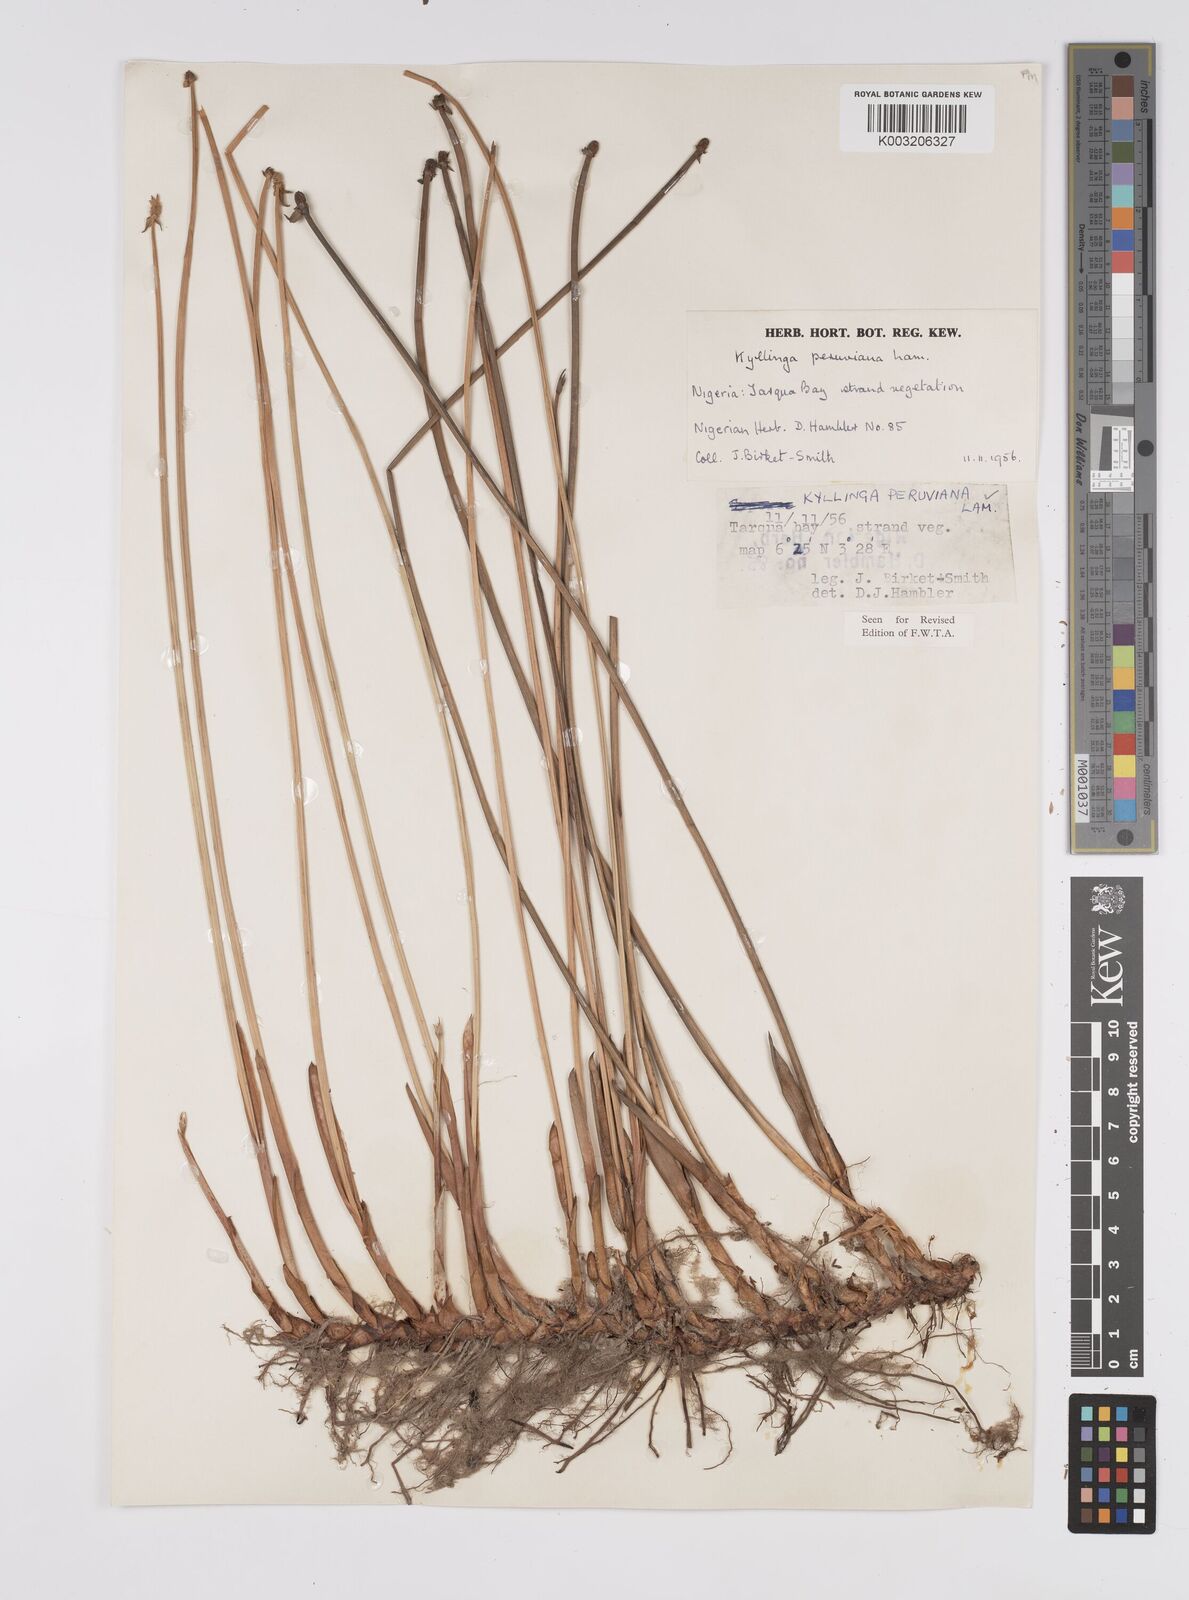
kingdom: Plantae
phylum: Tracheophyta
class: Liliopsida
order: Poales
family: Cyperaceae
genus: Cyperus
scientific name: Cyperus
